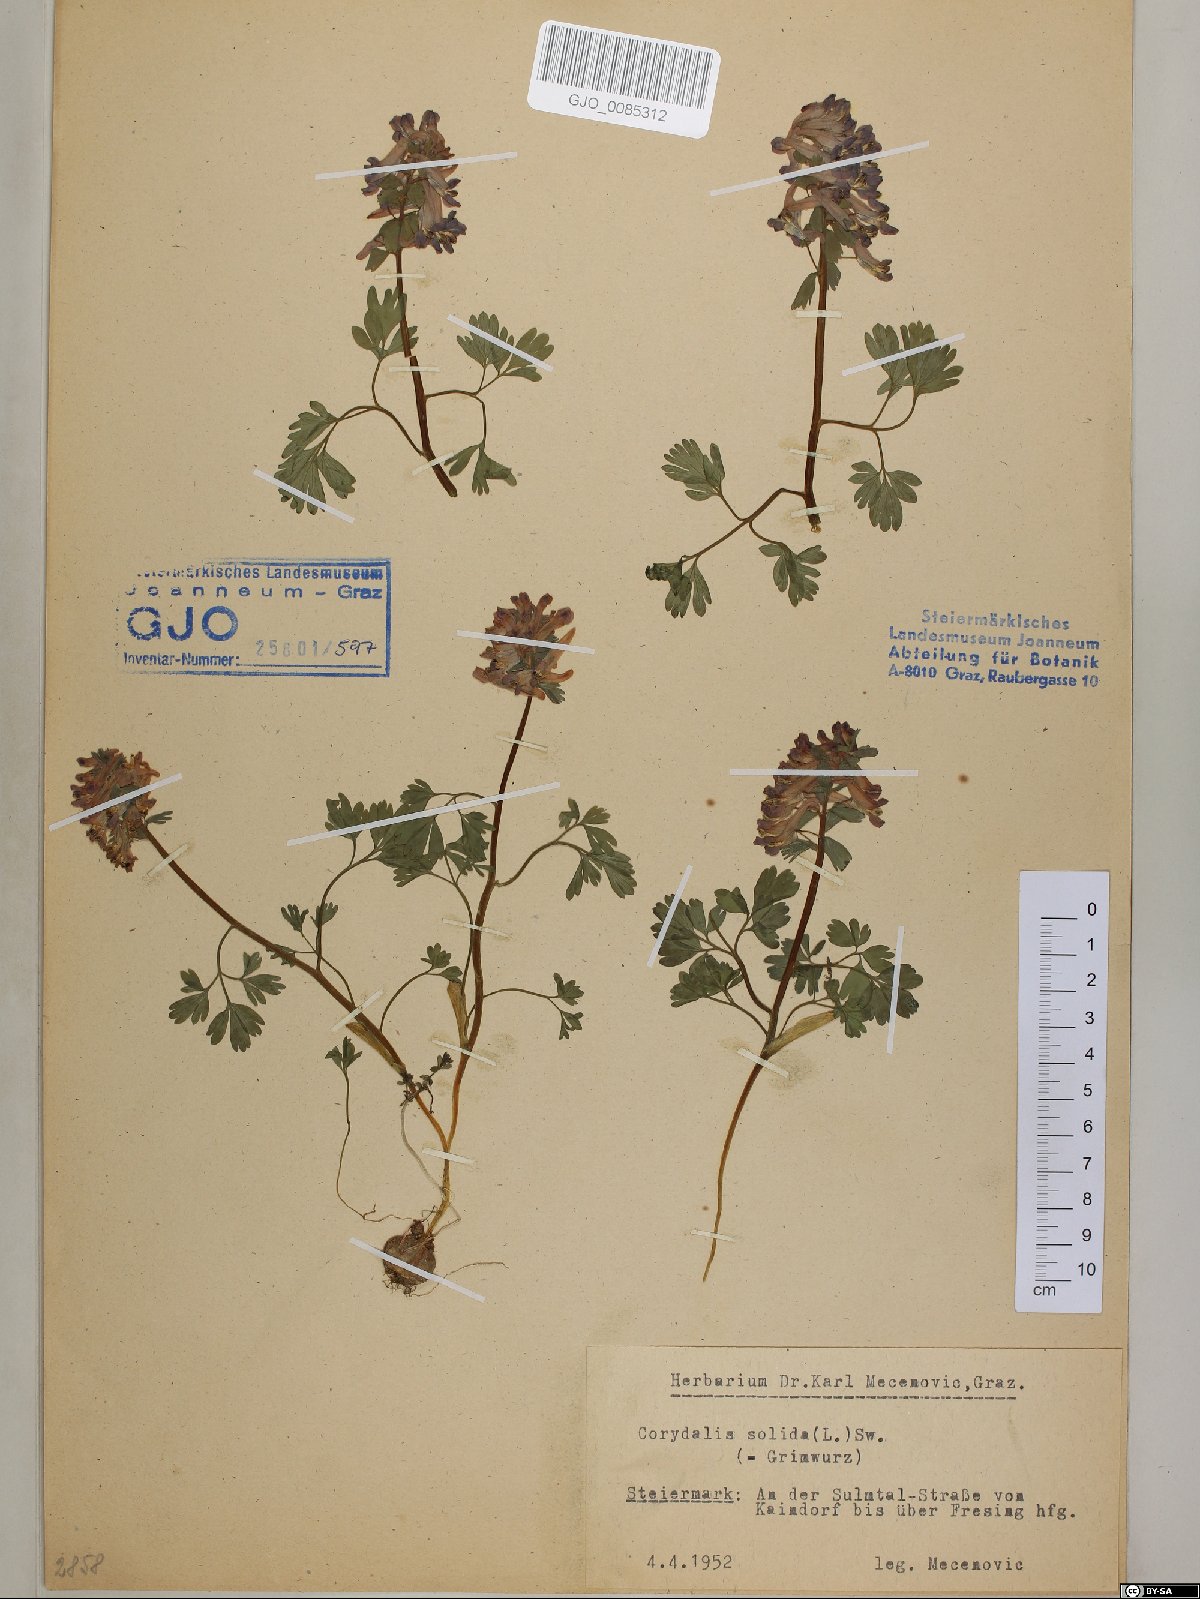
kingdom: Plantae
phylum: Tracheophyta
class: Magnoliopsida
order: Ranunculales
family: Papaveraceae
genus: Corydalis
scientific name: Corydalis solida
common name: Bird-in-a-bush
